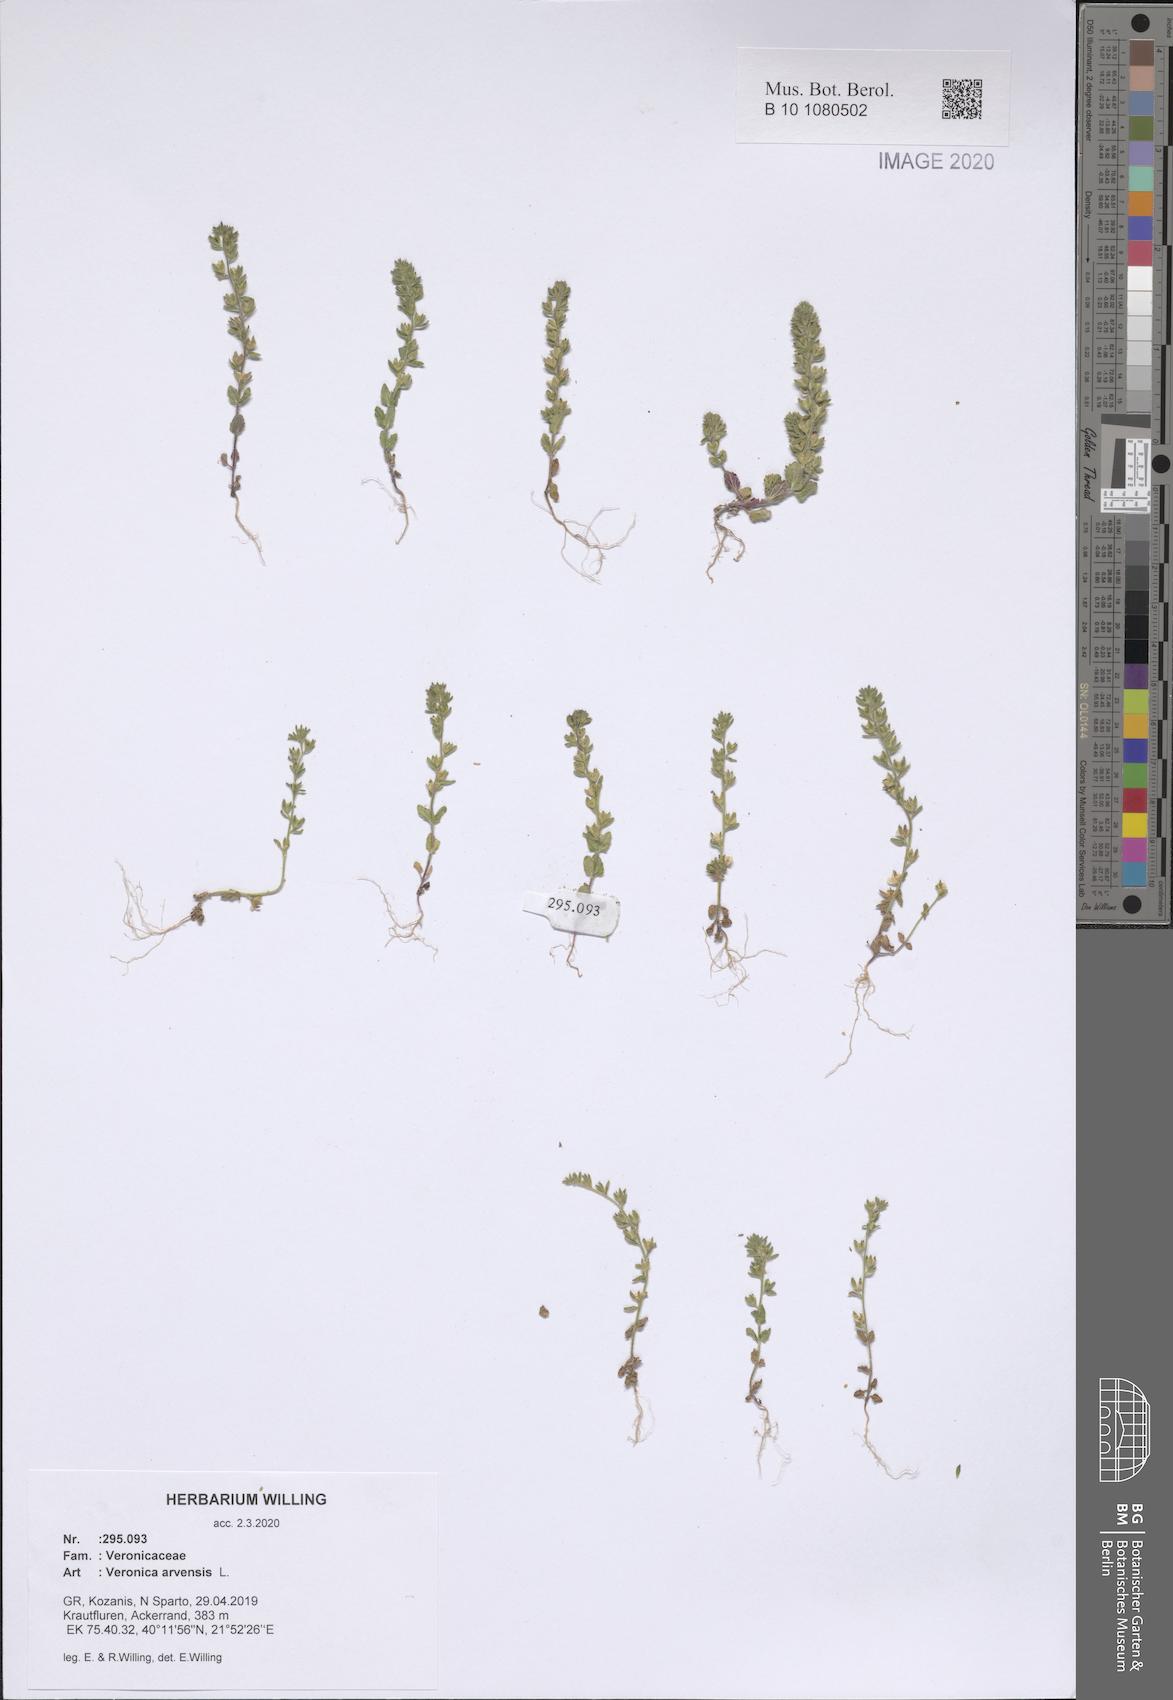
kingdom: Plantae
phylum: Tracheophyta
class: Magnoliopsida
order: Lamiales
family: Plantaginaceae
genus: Veronica
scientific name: Veronica arvensis
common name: Corn speedwell
